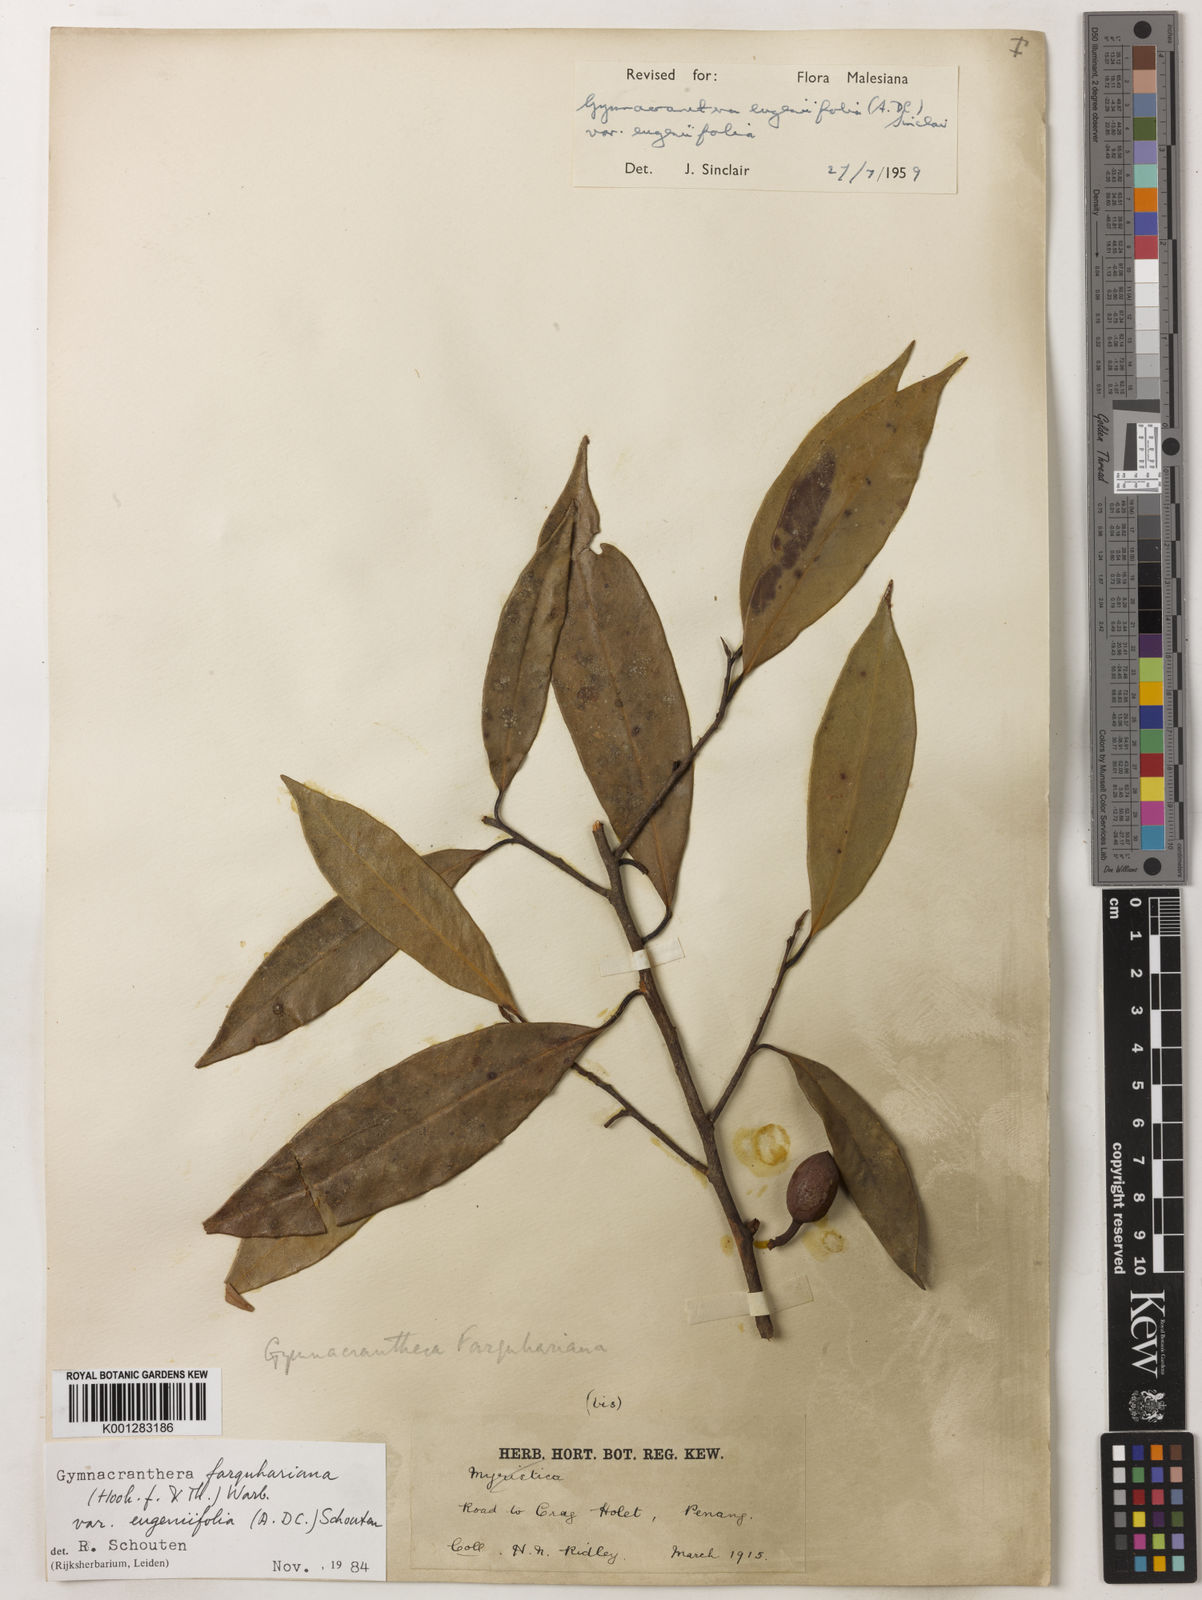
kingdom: Plantae
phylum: Tracheophyta
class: Magnoliopsida
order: Magnoliales
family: Myristicaceae
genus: Gymnacranthera
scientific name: Gymnacranthera farquhariana
